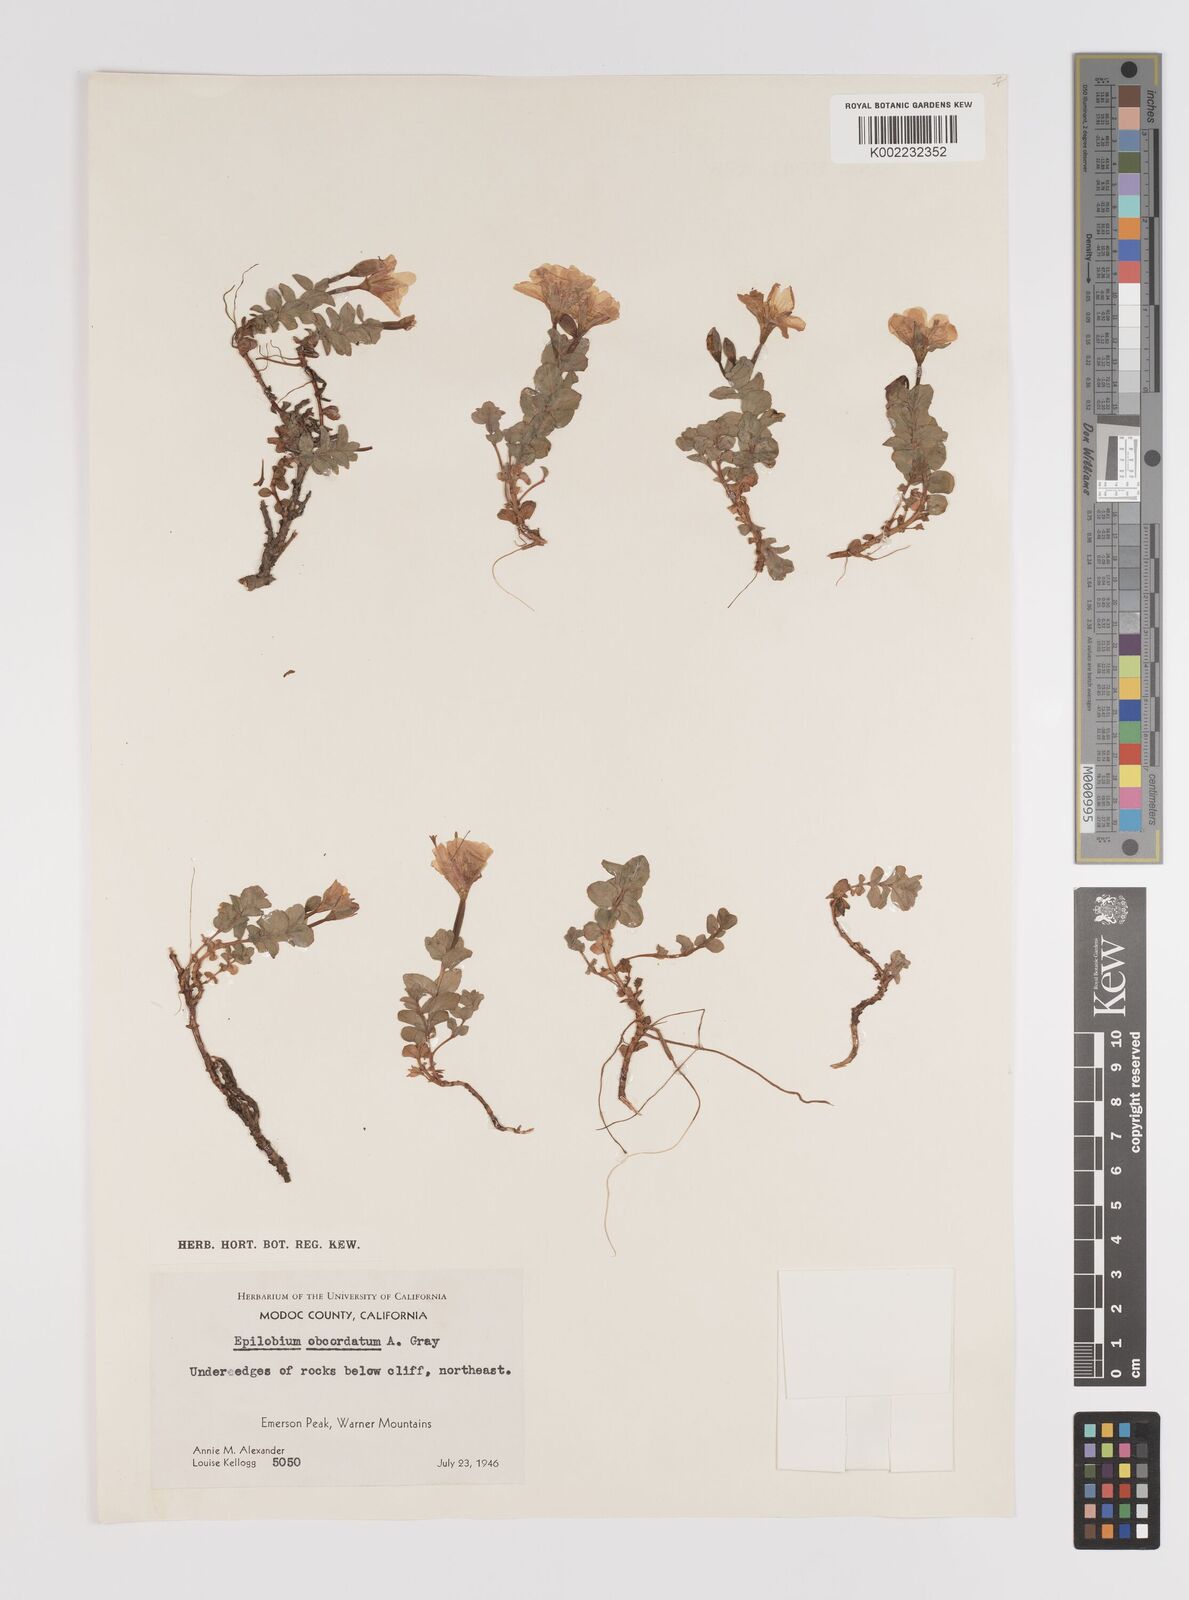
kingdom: Plantae
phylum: Tracheophyta
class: Magnoliopsida
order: Myrtales
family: Onagraceae
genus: Epilobium
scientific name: Epilobium obcordatum
